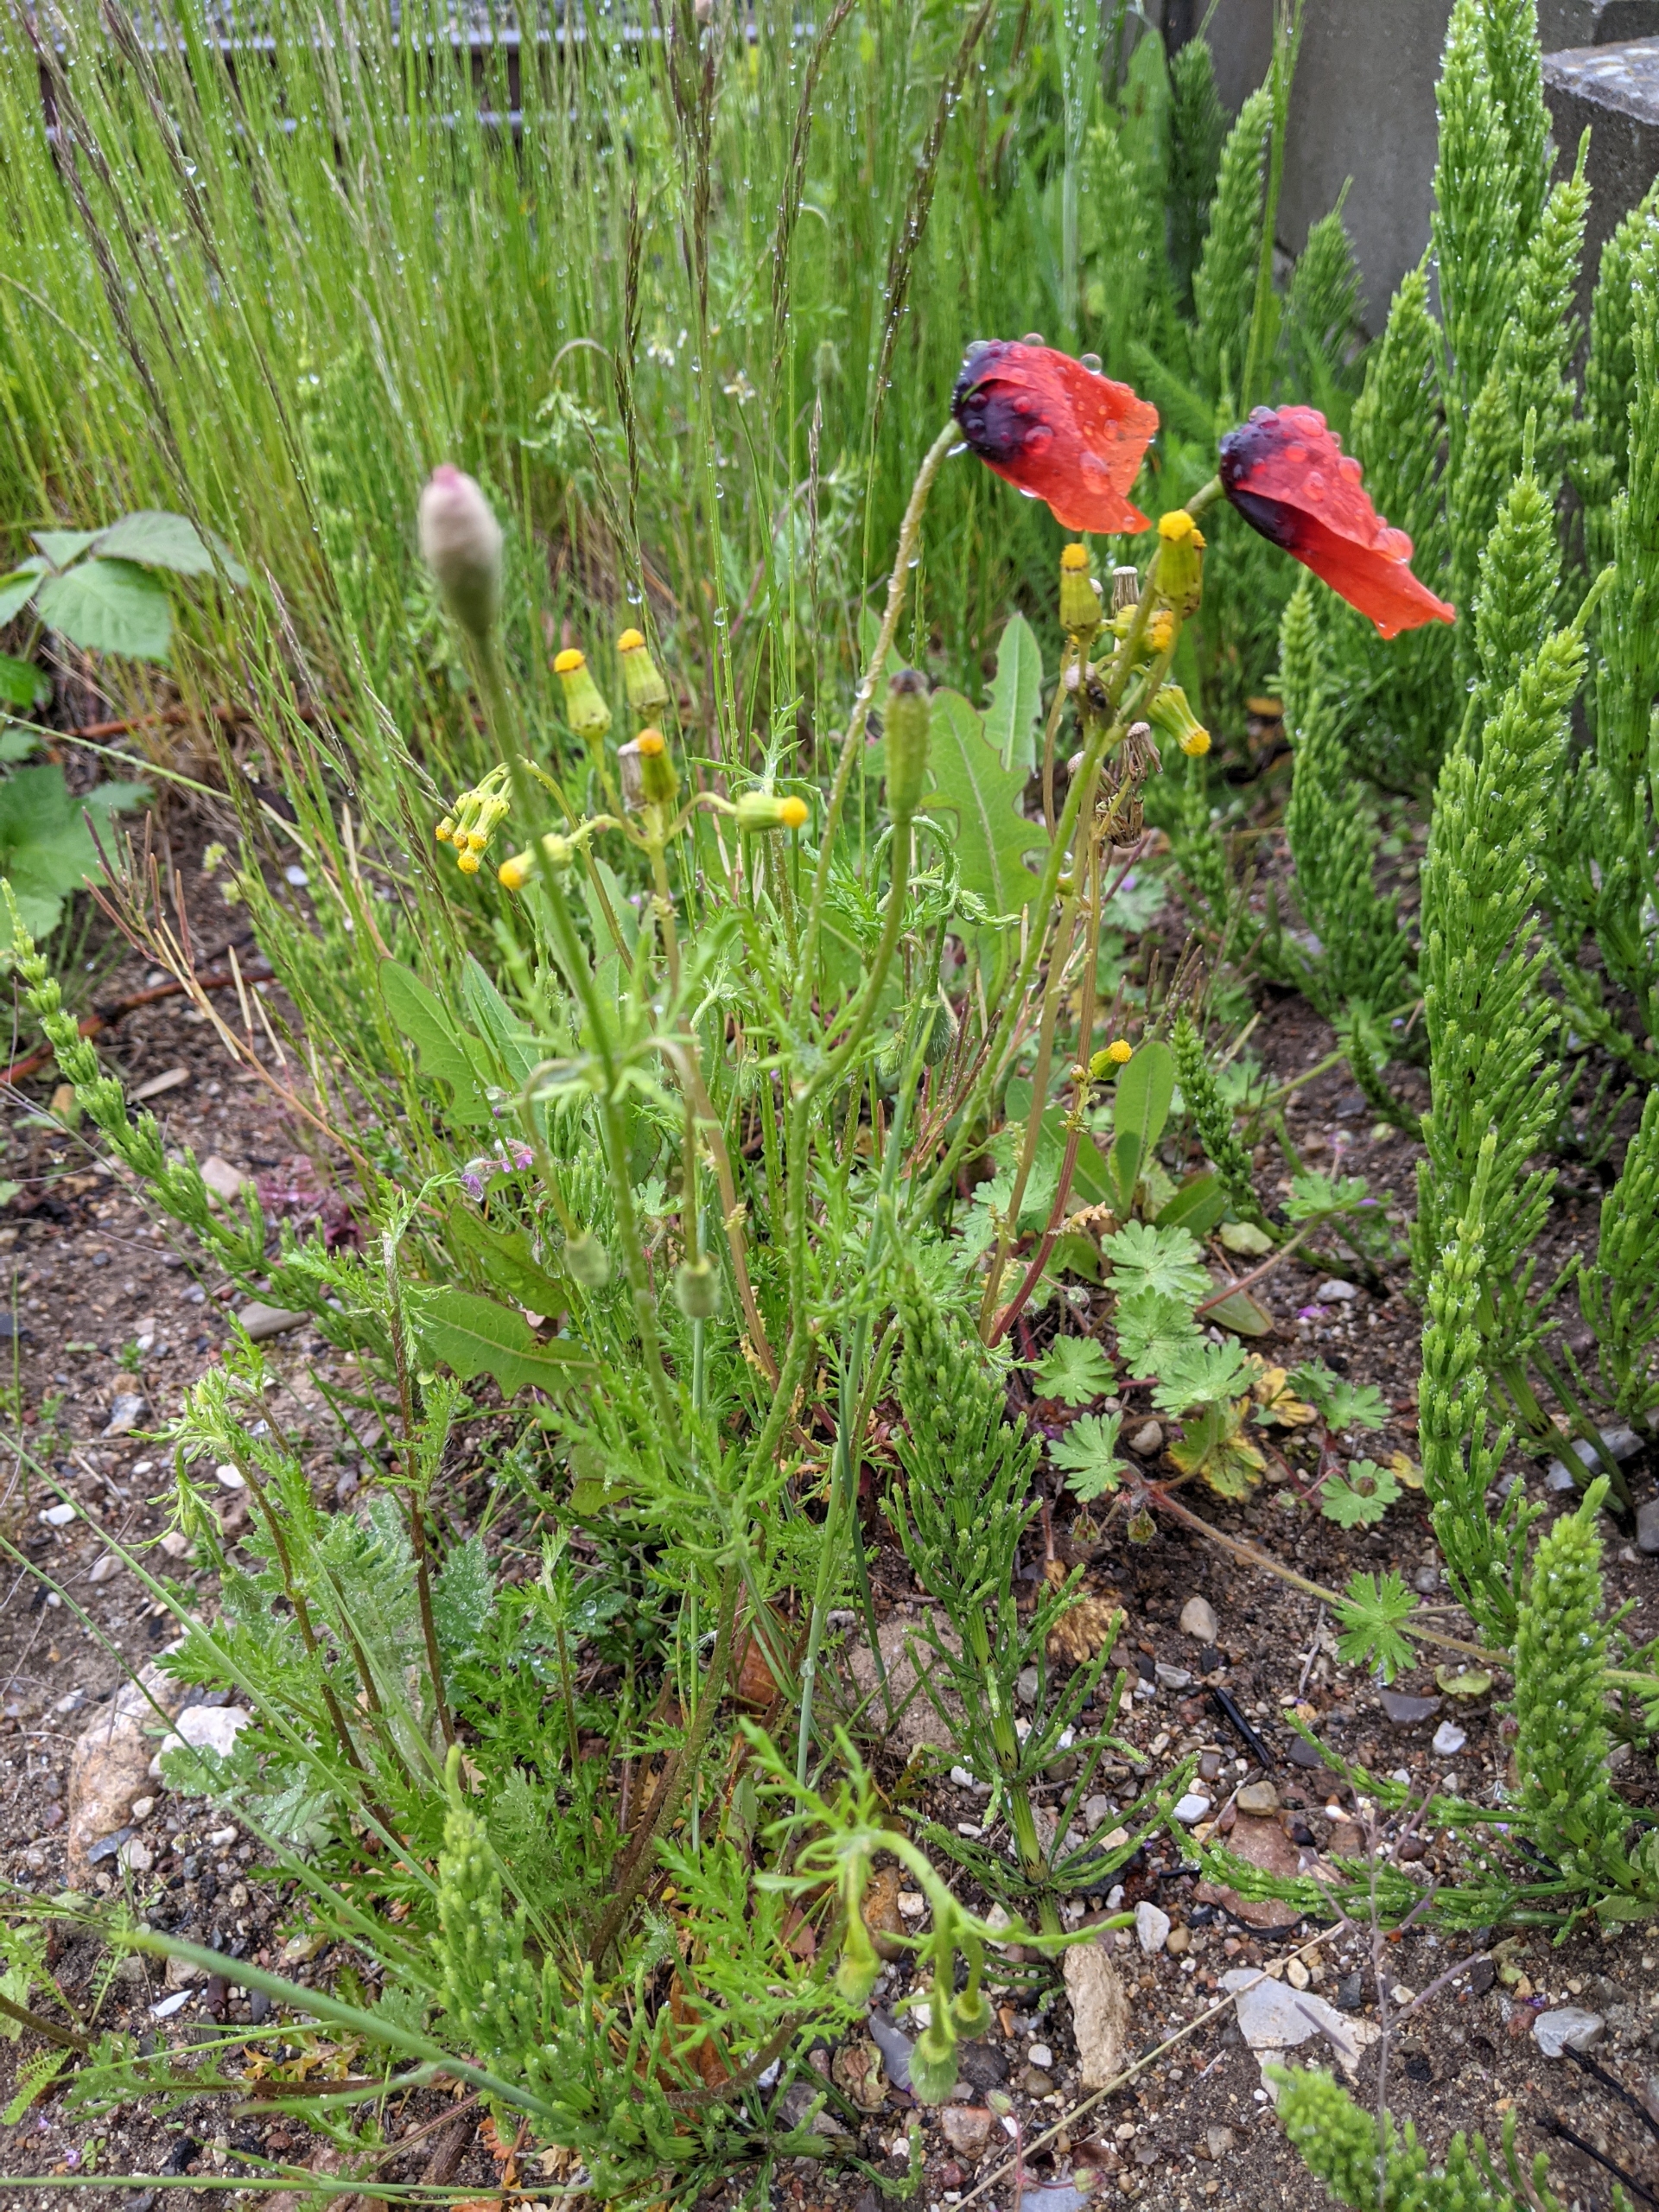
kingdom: Plantae
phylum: Tracheophyta
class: Magnoliopsida
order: Ranunculales
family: Papaveraceae
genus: Roemeria
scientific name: Roemeria argemone
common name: Kølle-valmue
